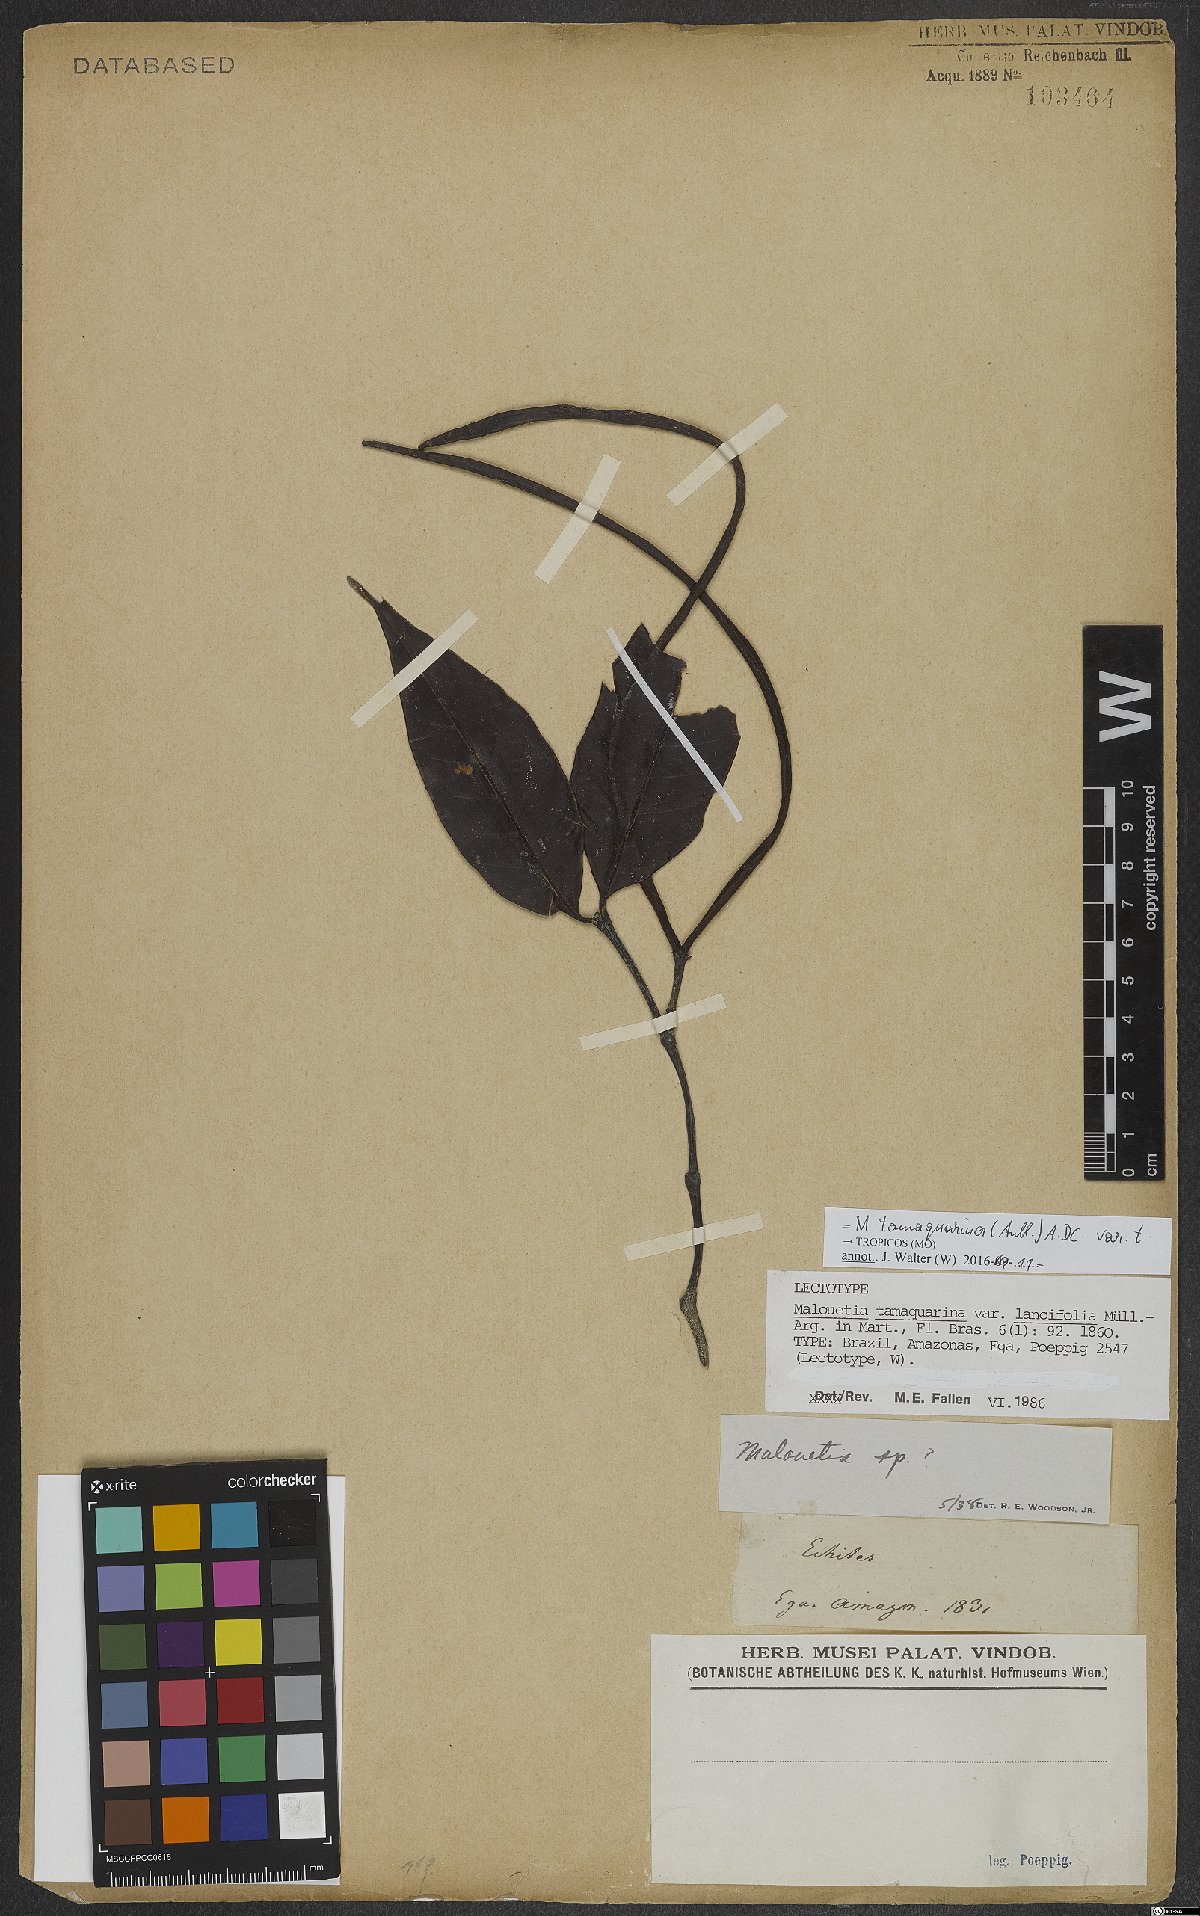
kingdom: Plantae
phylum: Tracheophyta
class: Magnoliopsida
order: Gentianales
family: Apocynaceae
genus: Malouetia
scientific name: Malouetia tamaquarina
